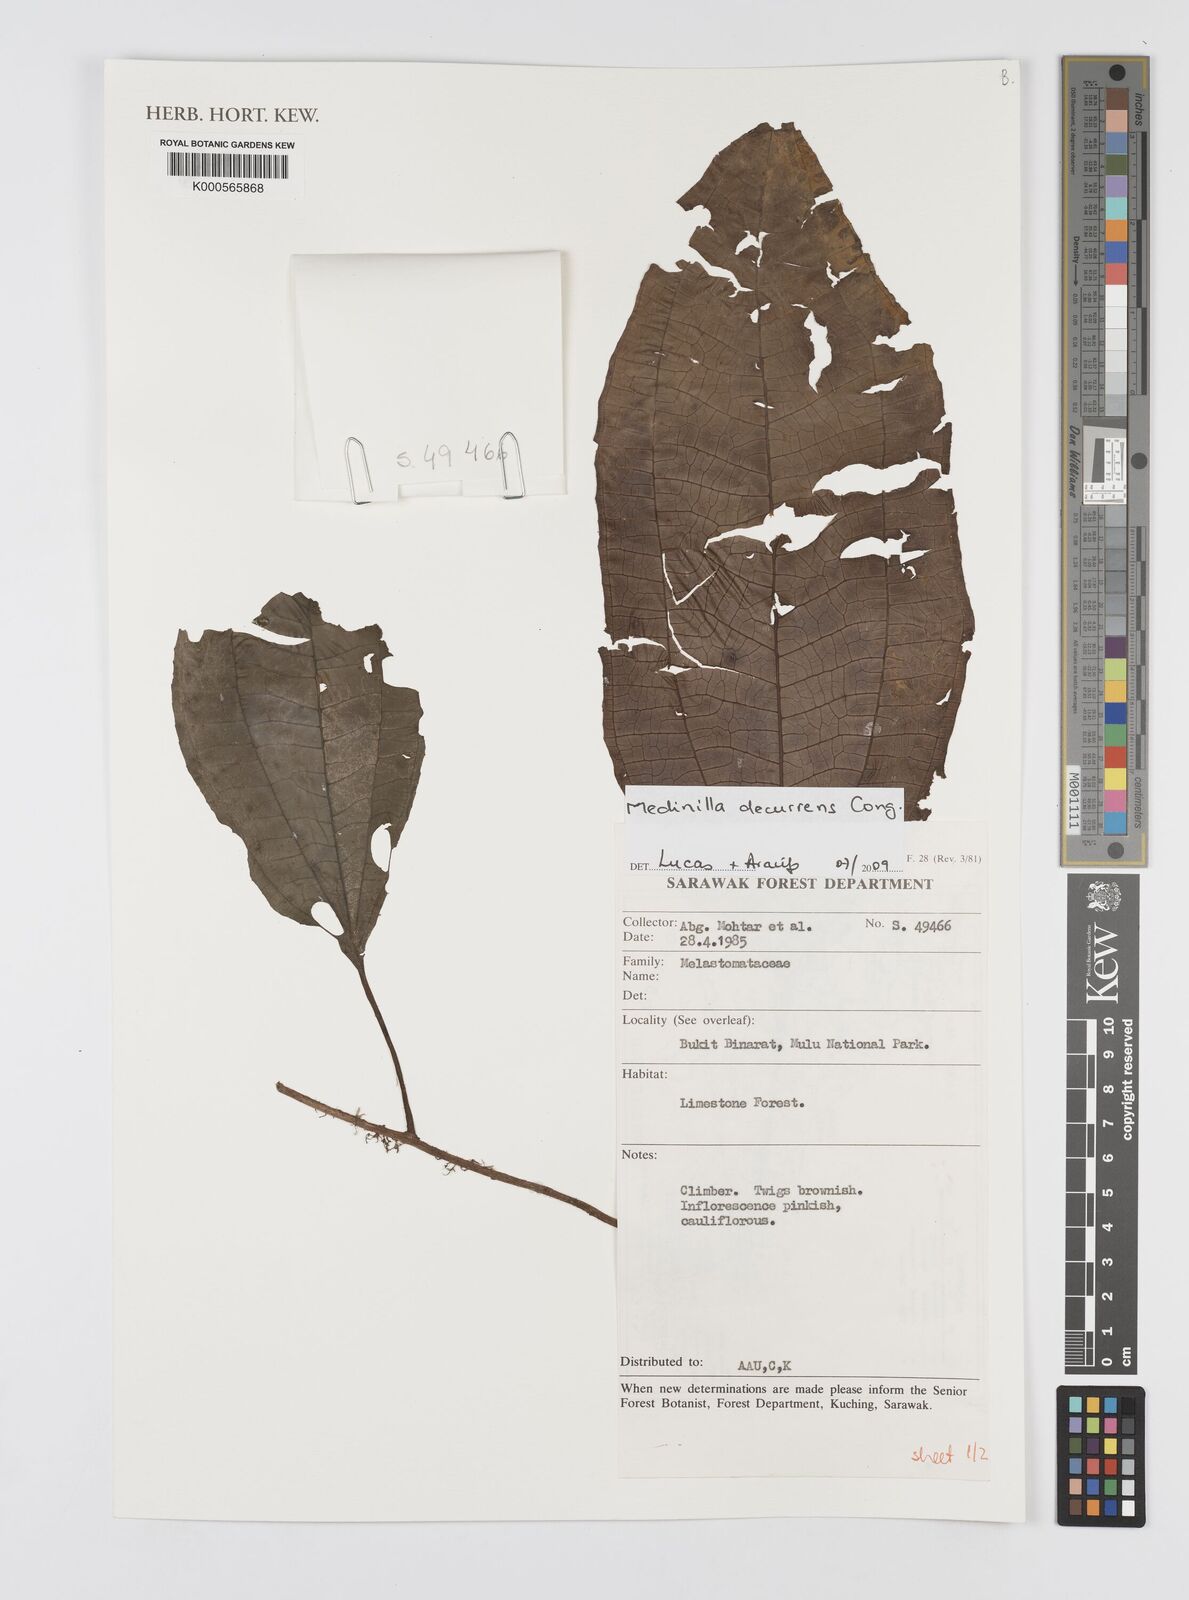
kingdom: Plantae
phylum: Tracheophyta
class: Magnoliopsida
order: Myrtales
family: Melastomataceae
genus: Medinilla
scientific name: Medinilla
